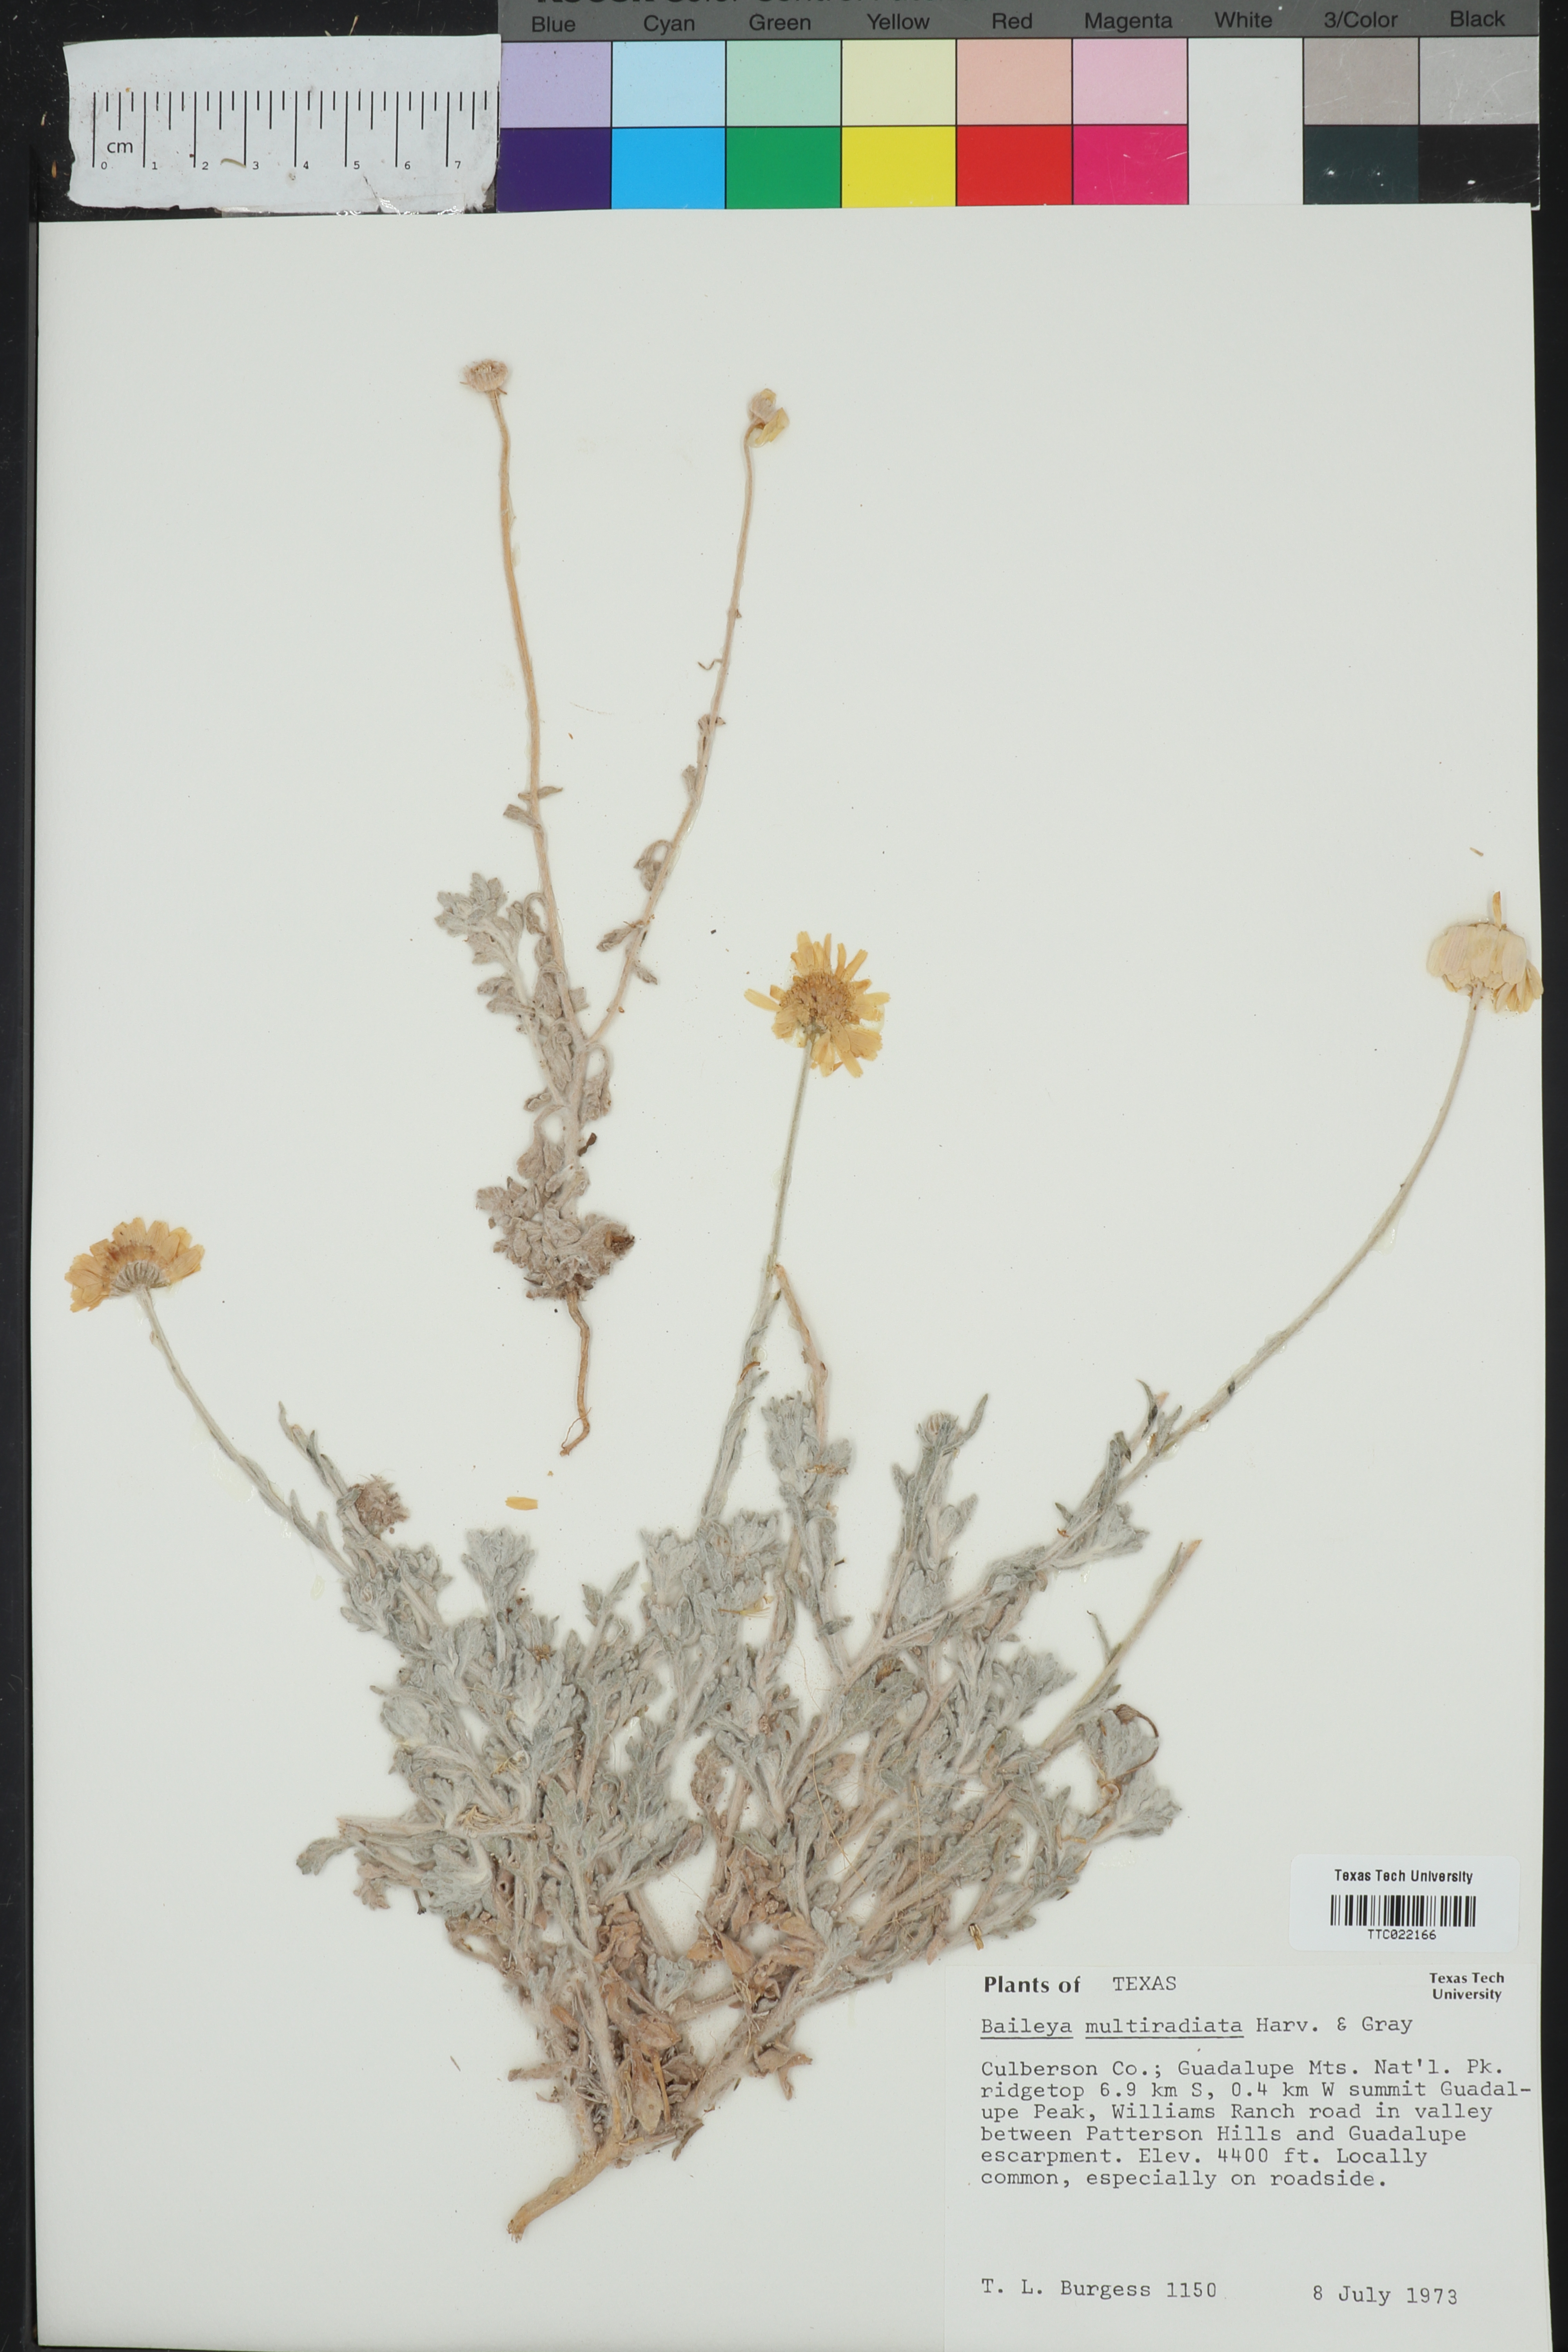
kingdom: Plantae
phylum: Tracheophyta
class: Magnoliopsida
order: Asterales
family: Asteraceae
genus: Baileya
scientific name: Baileya multiradiata
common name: Desert-marigold
